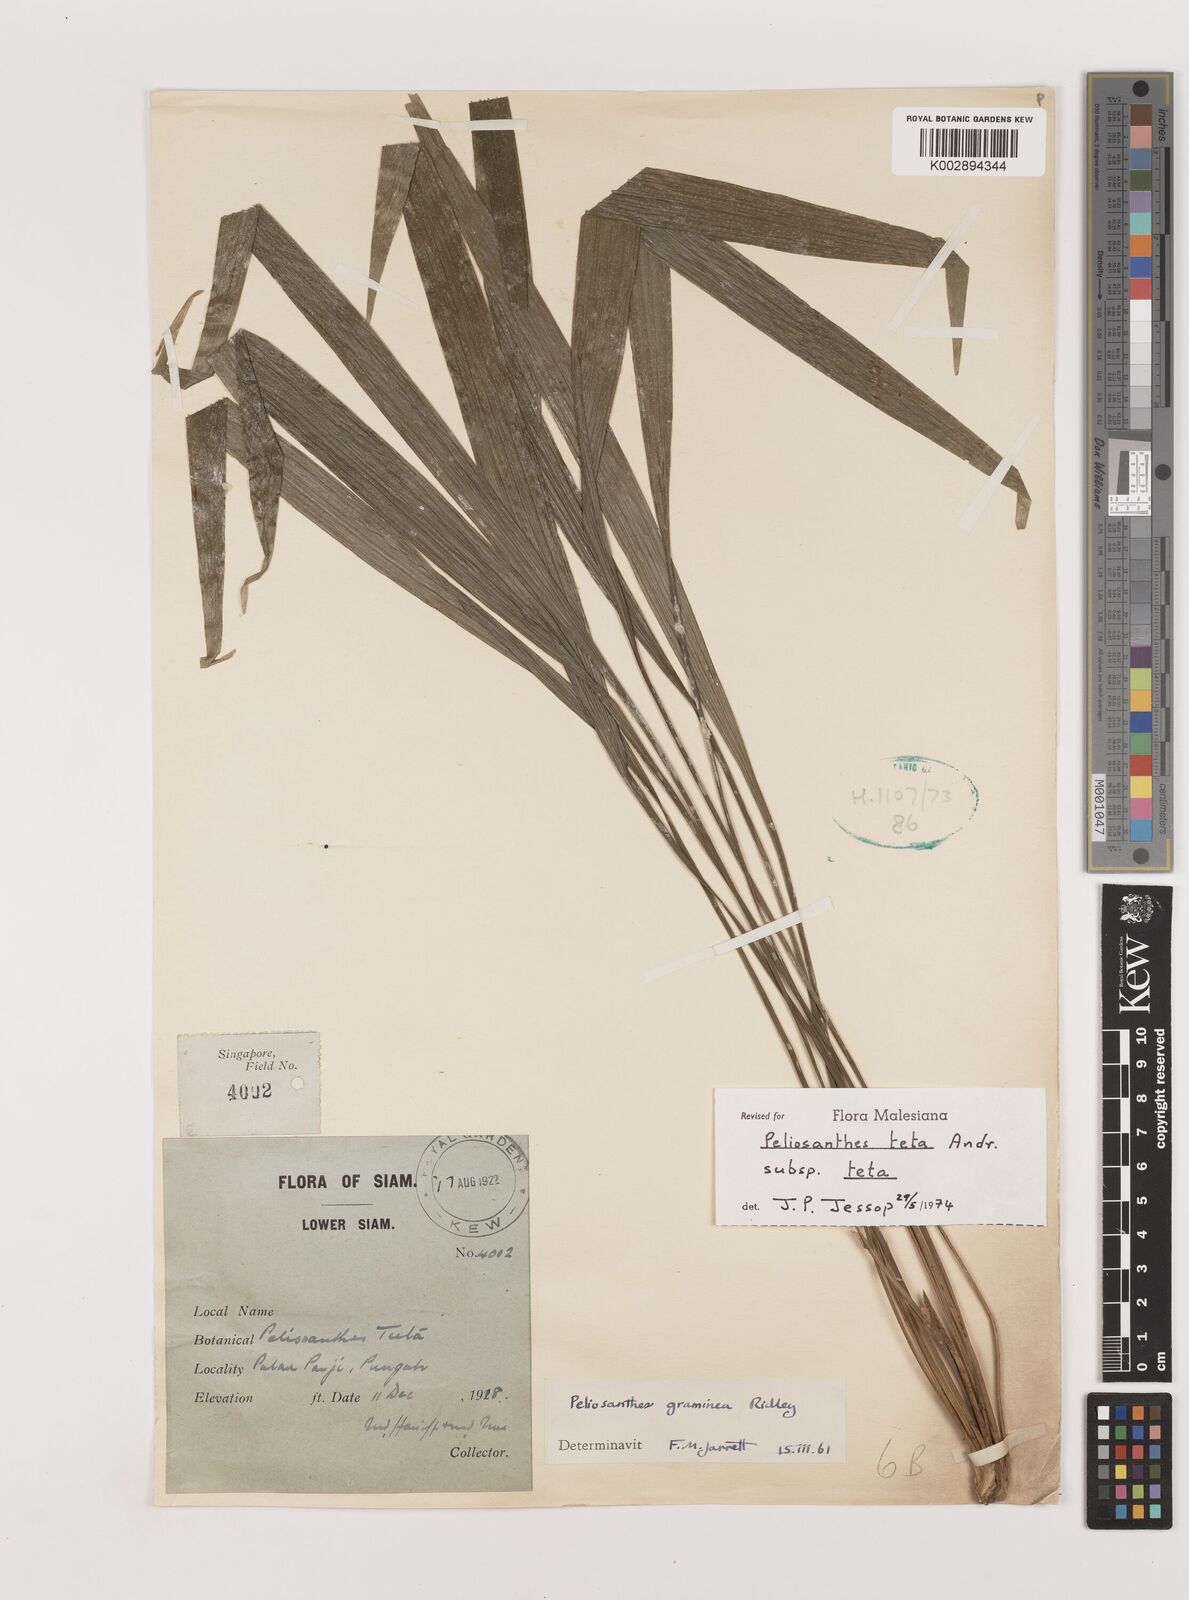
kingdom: Plantae
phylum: Tracheophyta
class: Liliopsida
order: Asparagales
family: Asparagaceae
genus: Peliosanthes
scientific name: Peliosanthes teta
